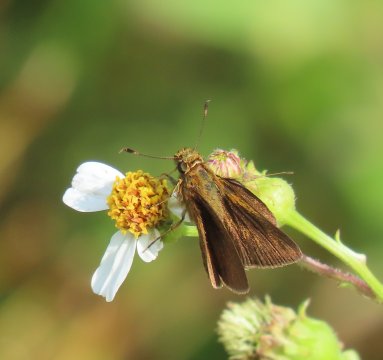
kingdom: Animalia
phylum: Arthropoda
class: Insecta
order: Lepidoptera
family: Hesperiidae
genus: Corticea
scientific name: Corticea corticea
